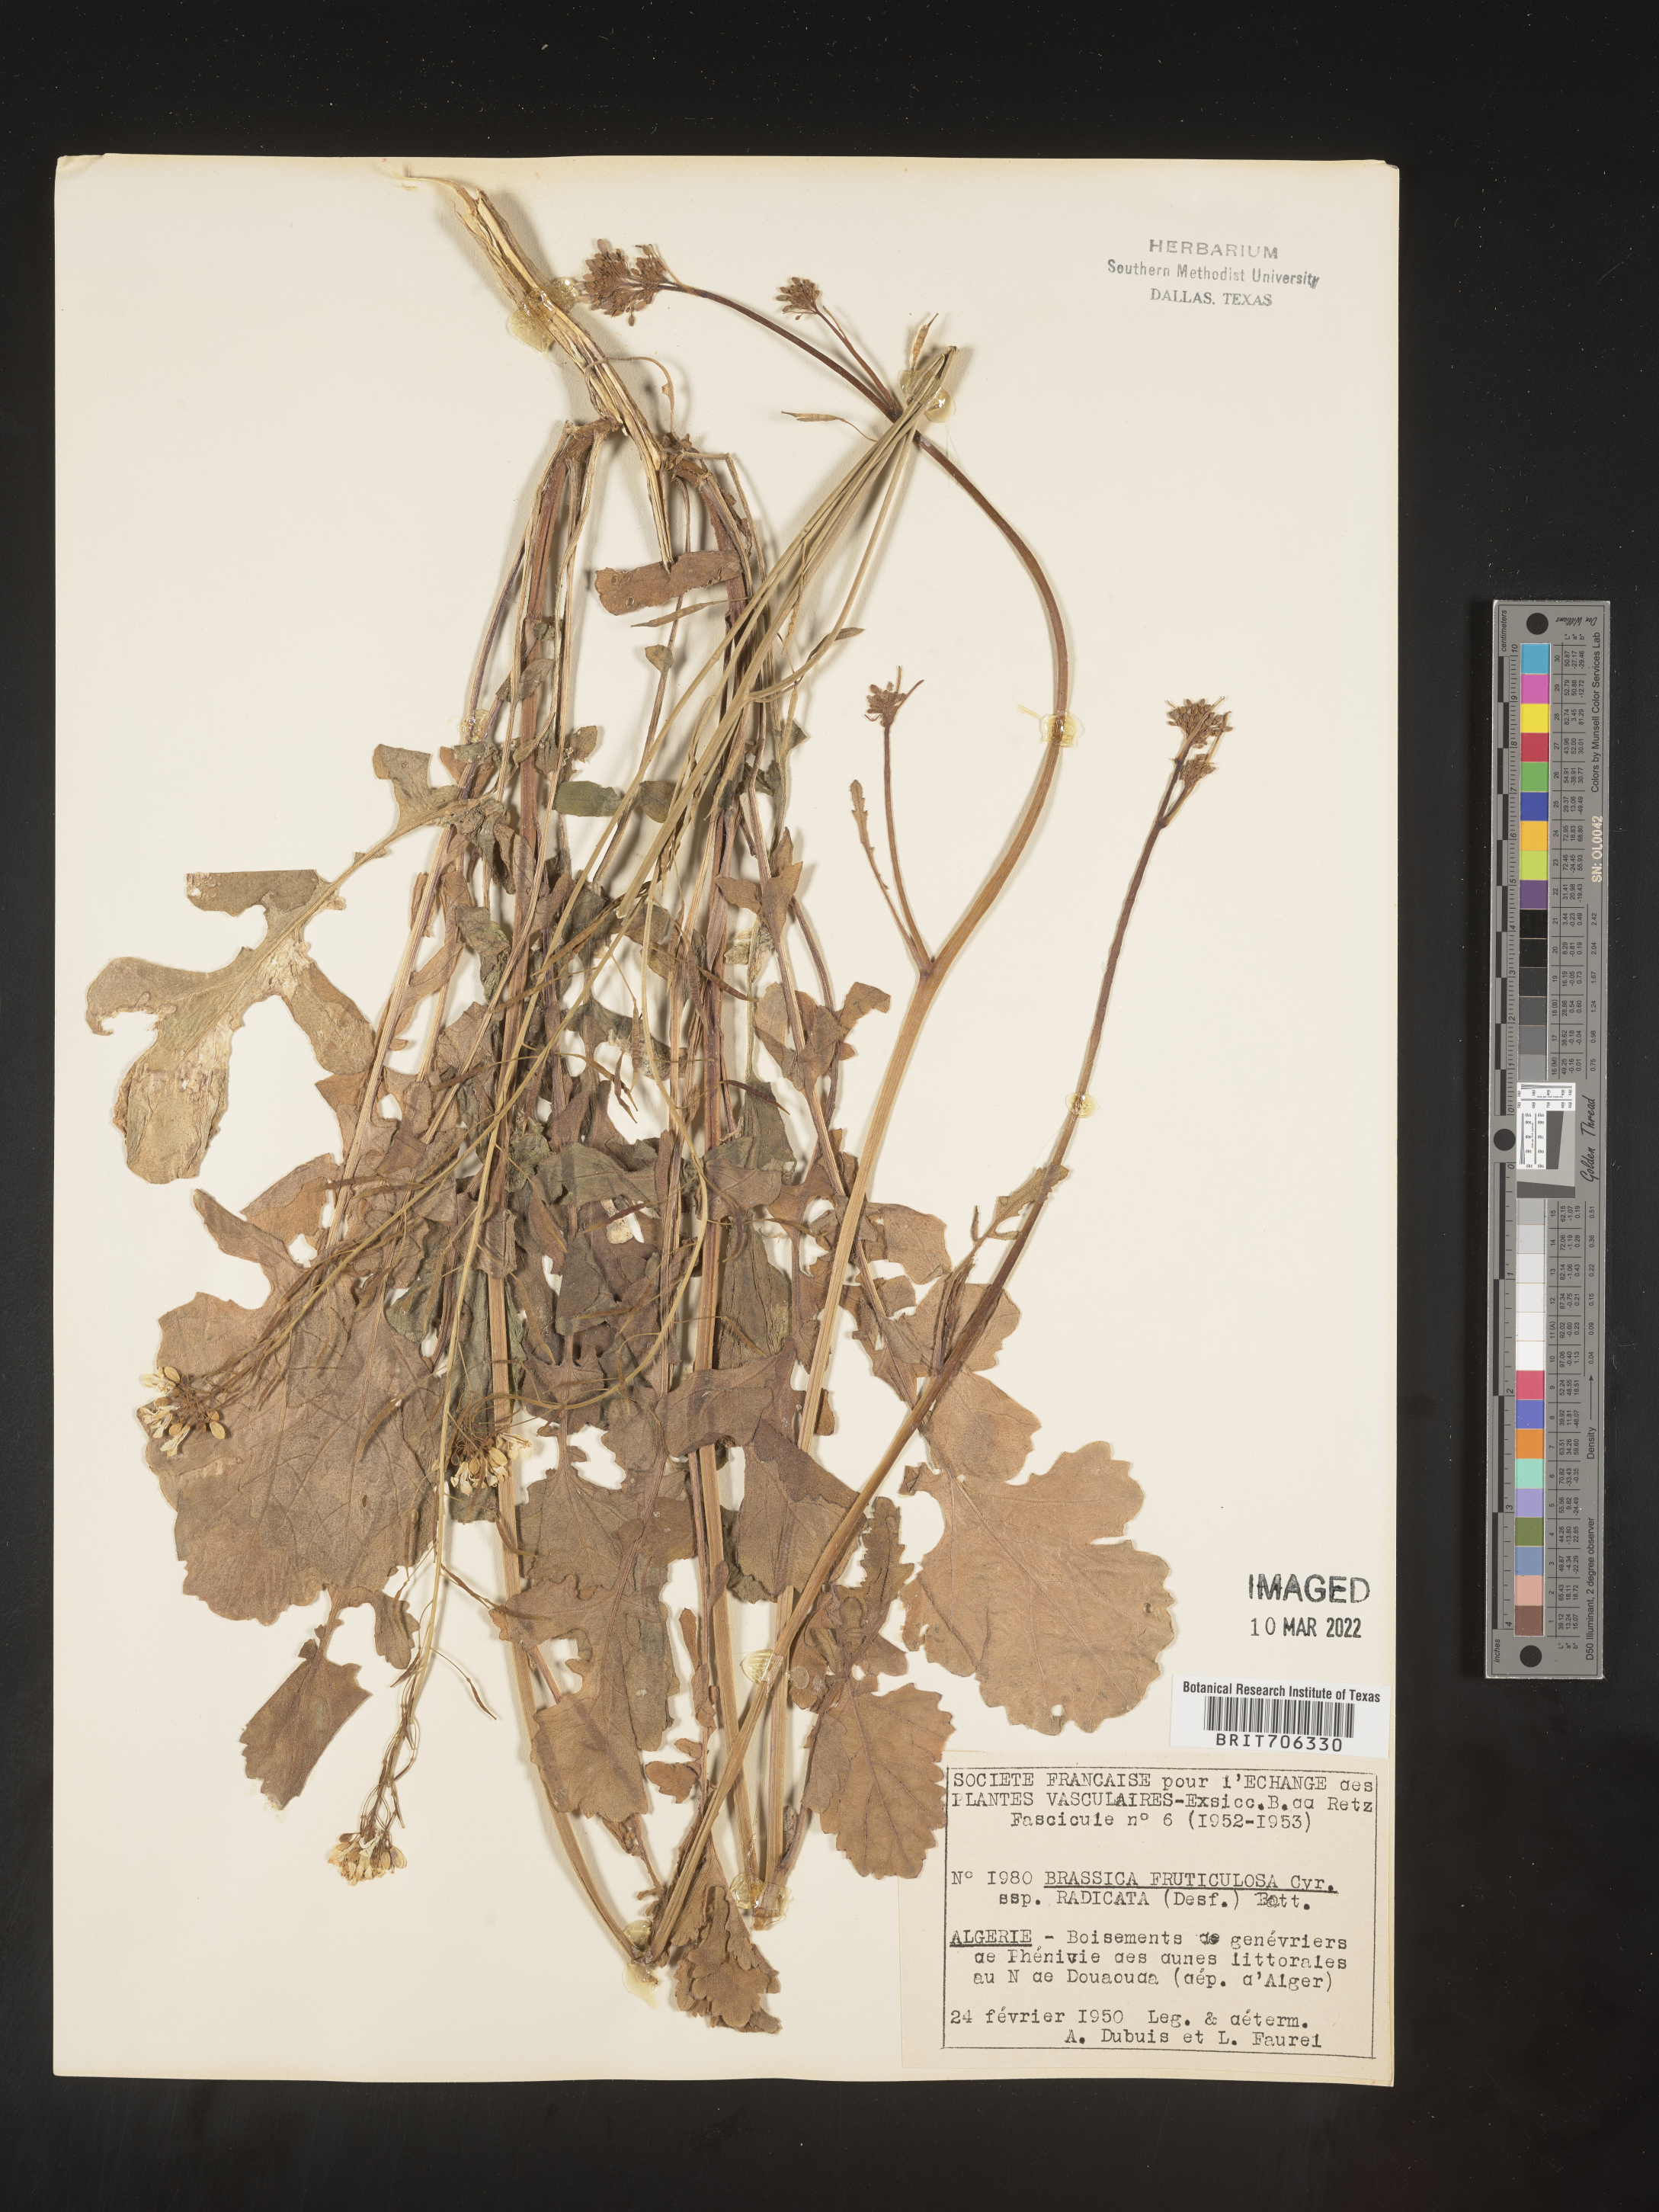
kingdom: Plantae
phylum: Tracheophyta
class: Magnoliopsida
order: Brassicales
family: Brassicaceae
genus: Brassica
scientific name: Brassica
